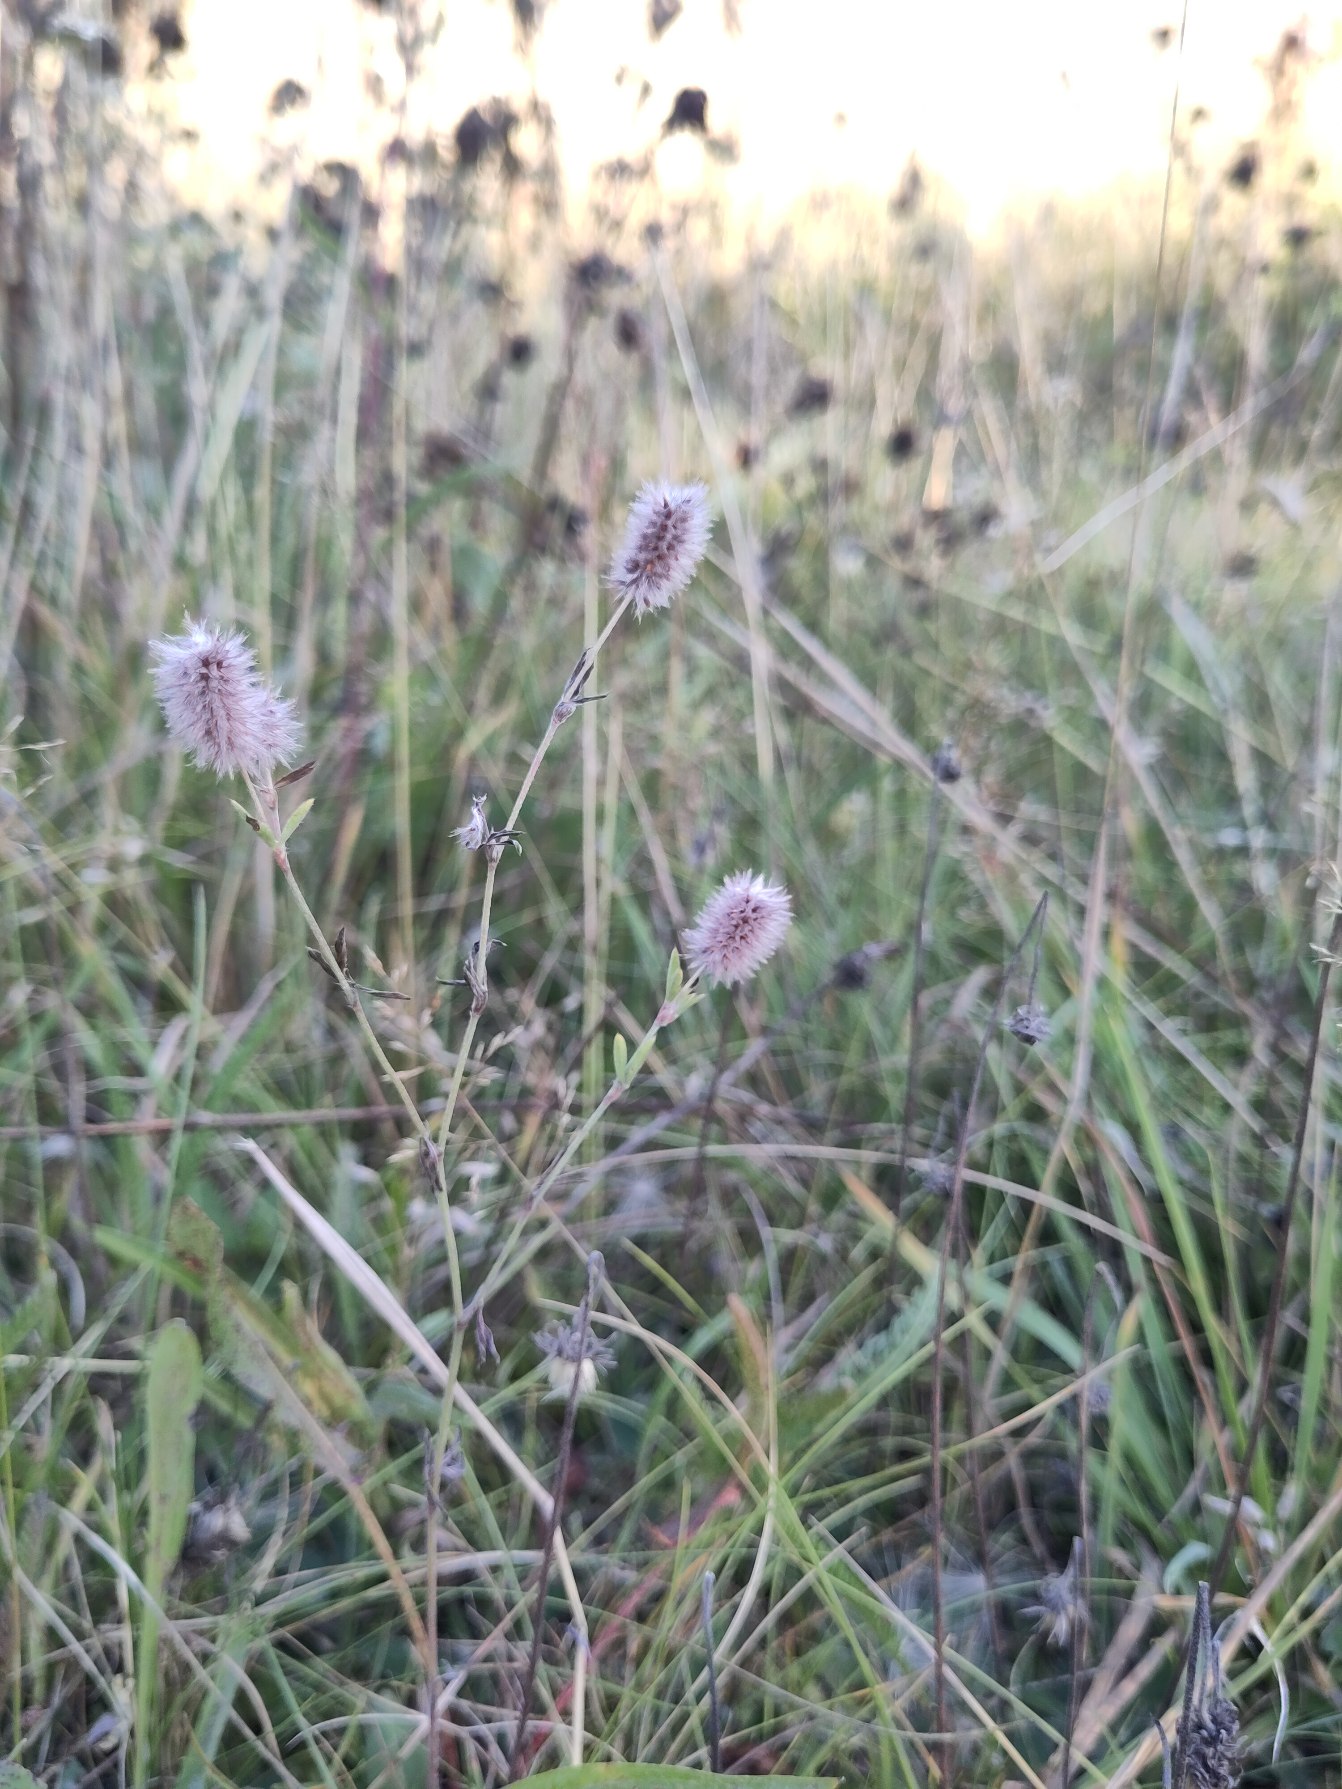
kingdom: Plantae
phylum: Tracheophyta
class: Magnoliopsida
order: Fabales
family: Fabaceae
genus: Trifolium
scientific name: Trifolium arvense
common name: Hare-kløver
